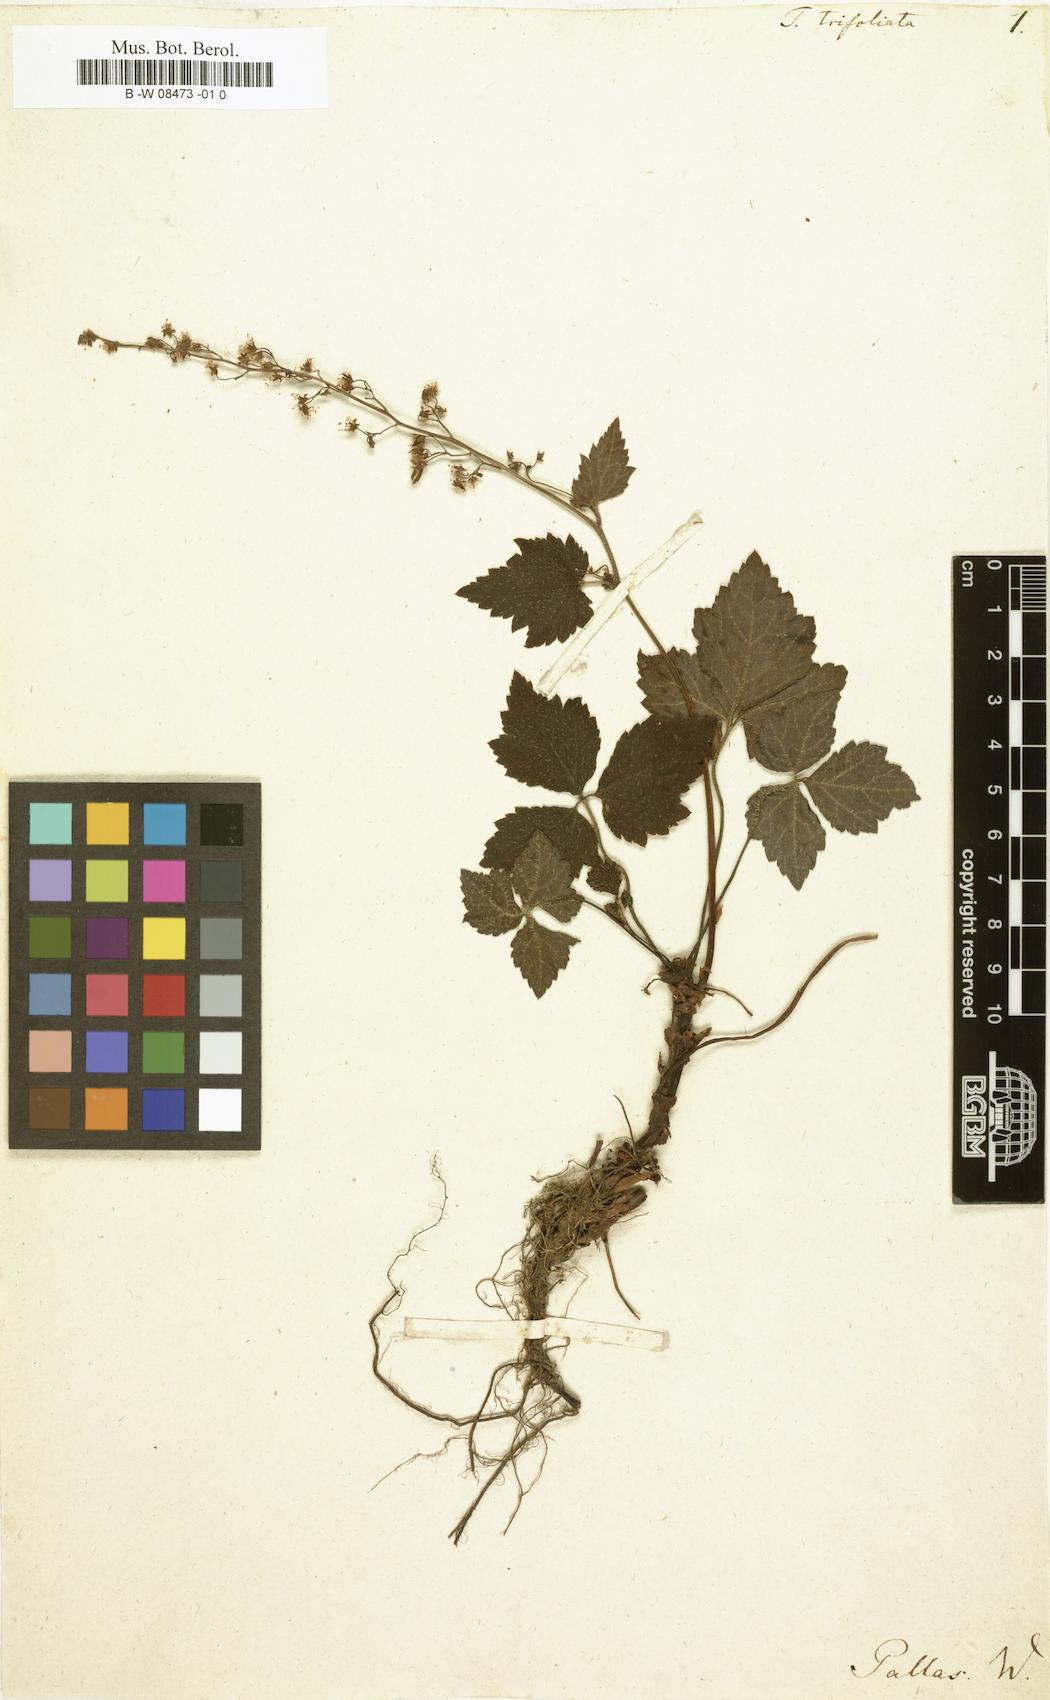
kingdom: Plantae
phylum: Tracheophyta
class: Magnoliopsida
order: Saxifragales
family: Saxifragaceae
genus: Tiarella
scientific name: Tiarella trifoliata
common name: Sugar-scoop
